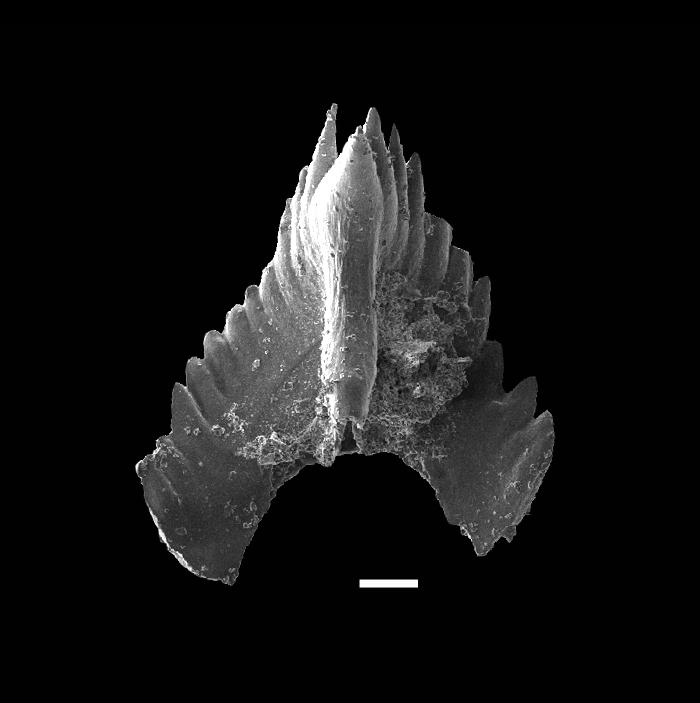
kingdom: Animalia
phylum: Chordata
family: Pterospathodontidae
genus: Astropentagnathus
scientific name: Astropentagnathus irregularis
